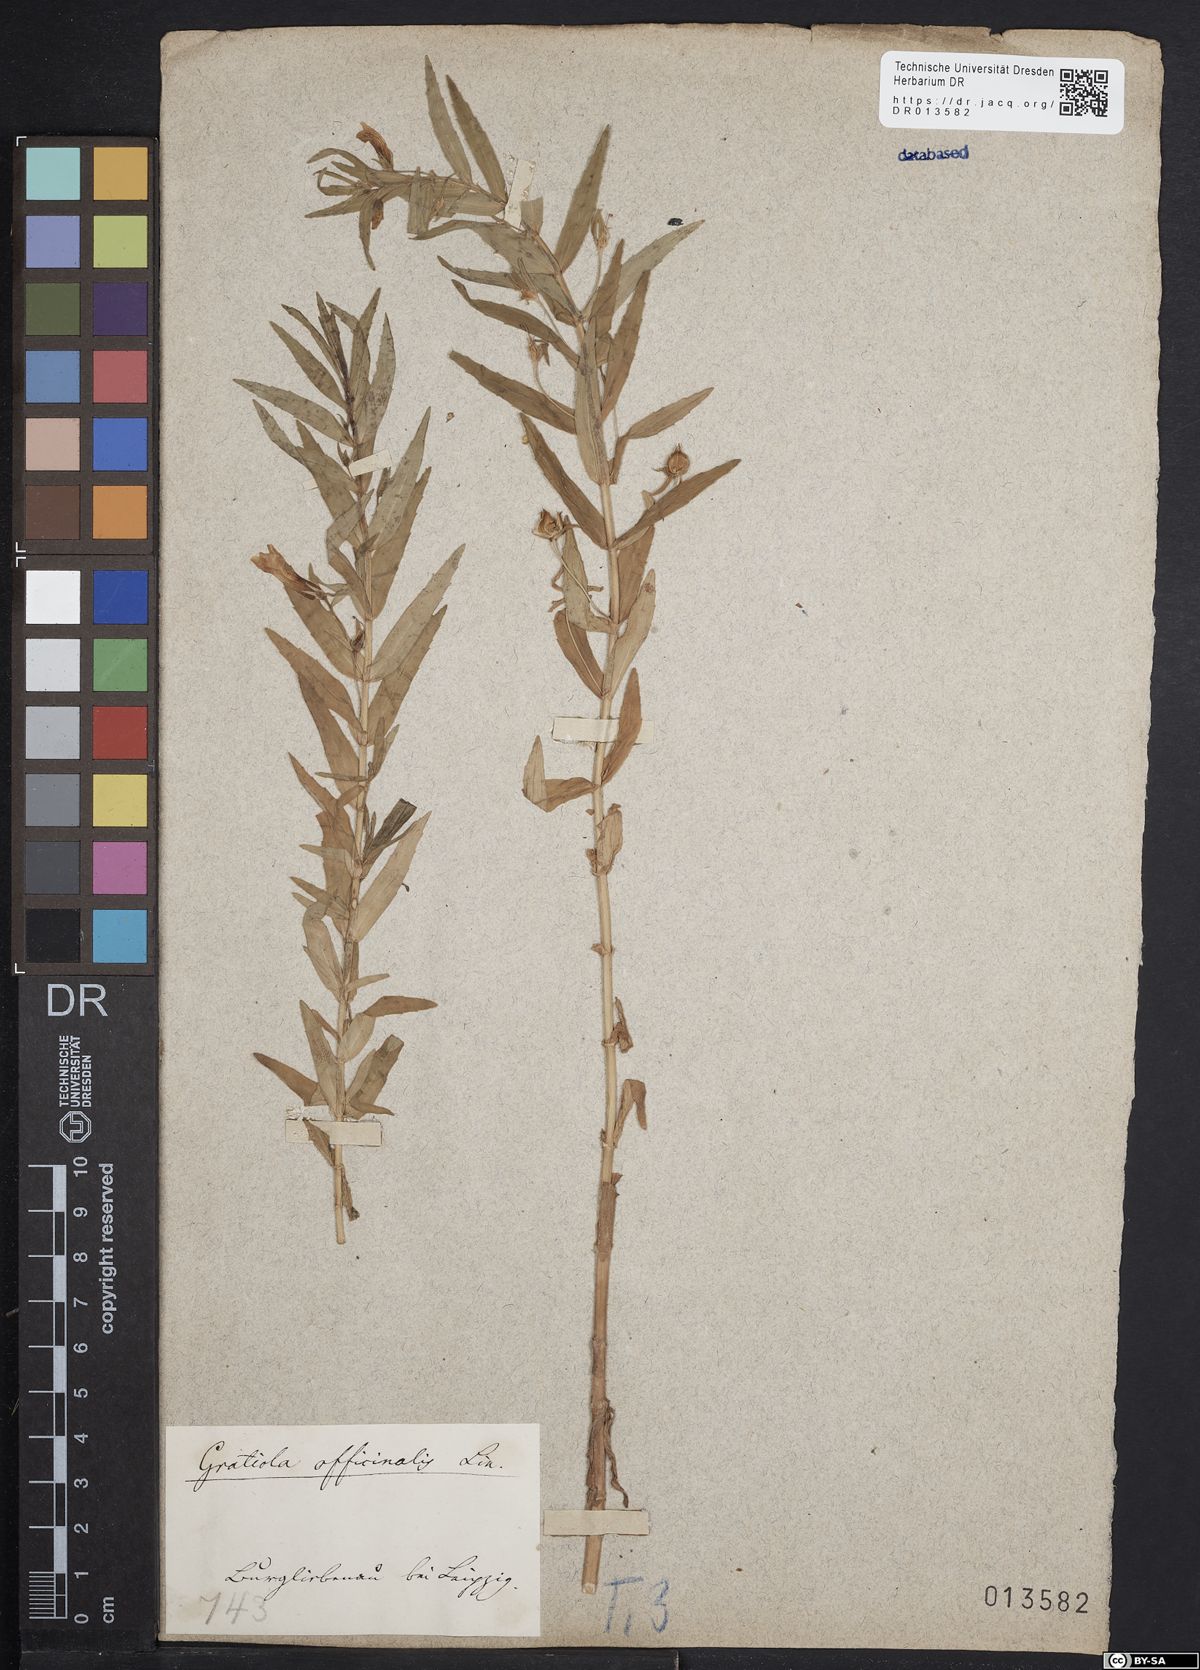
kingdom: Plantae
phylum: Tracheophyta
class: Magnoliopsida
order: Lamiales
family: Plantaginaceae
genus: Gratiola
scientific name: Gratiola officinalis
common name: Gratiola
